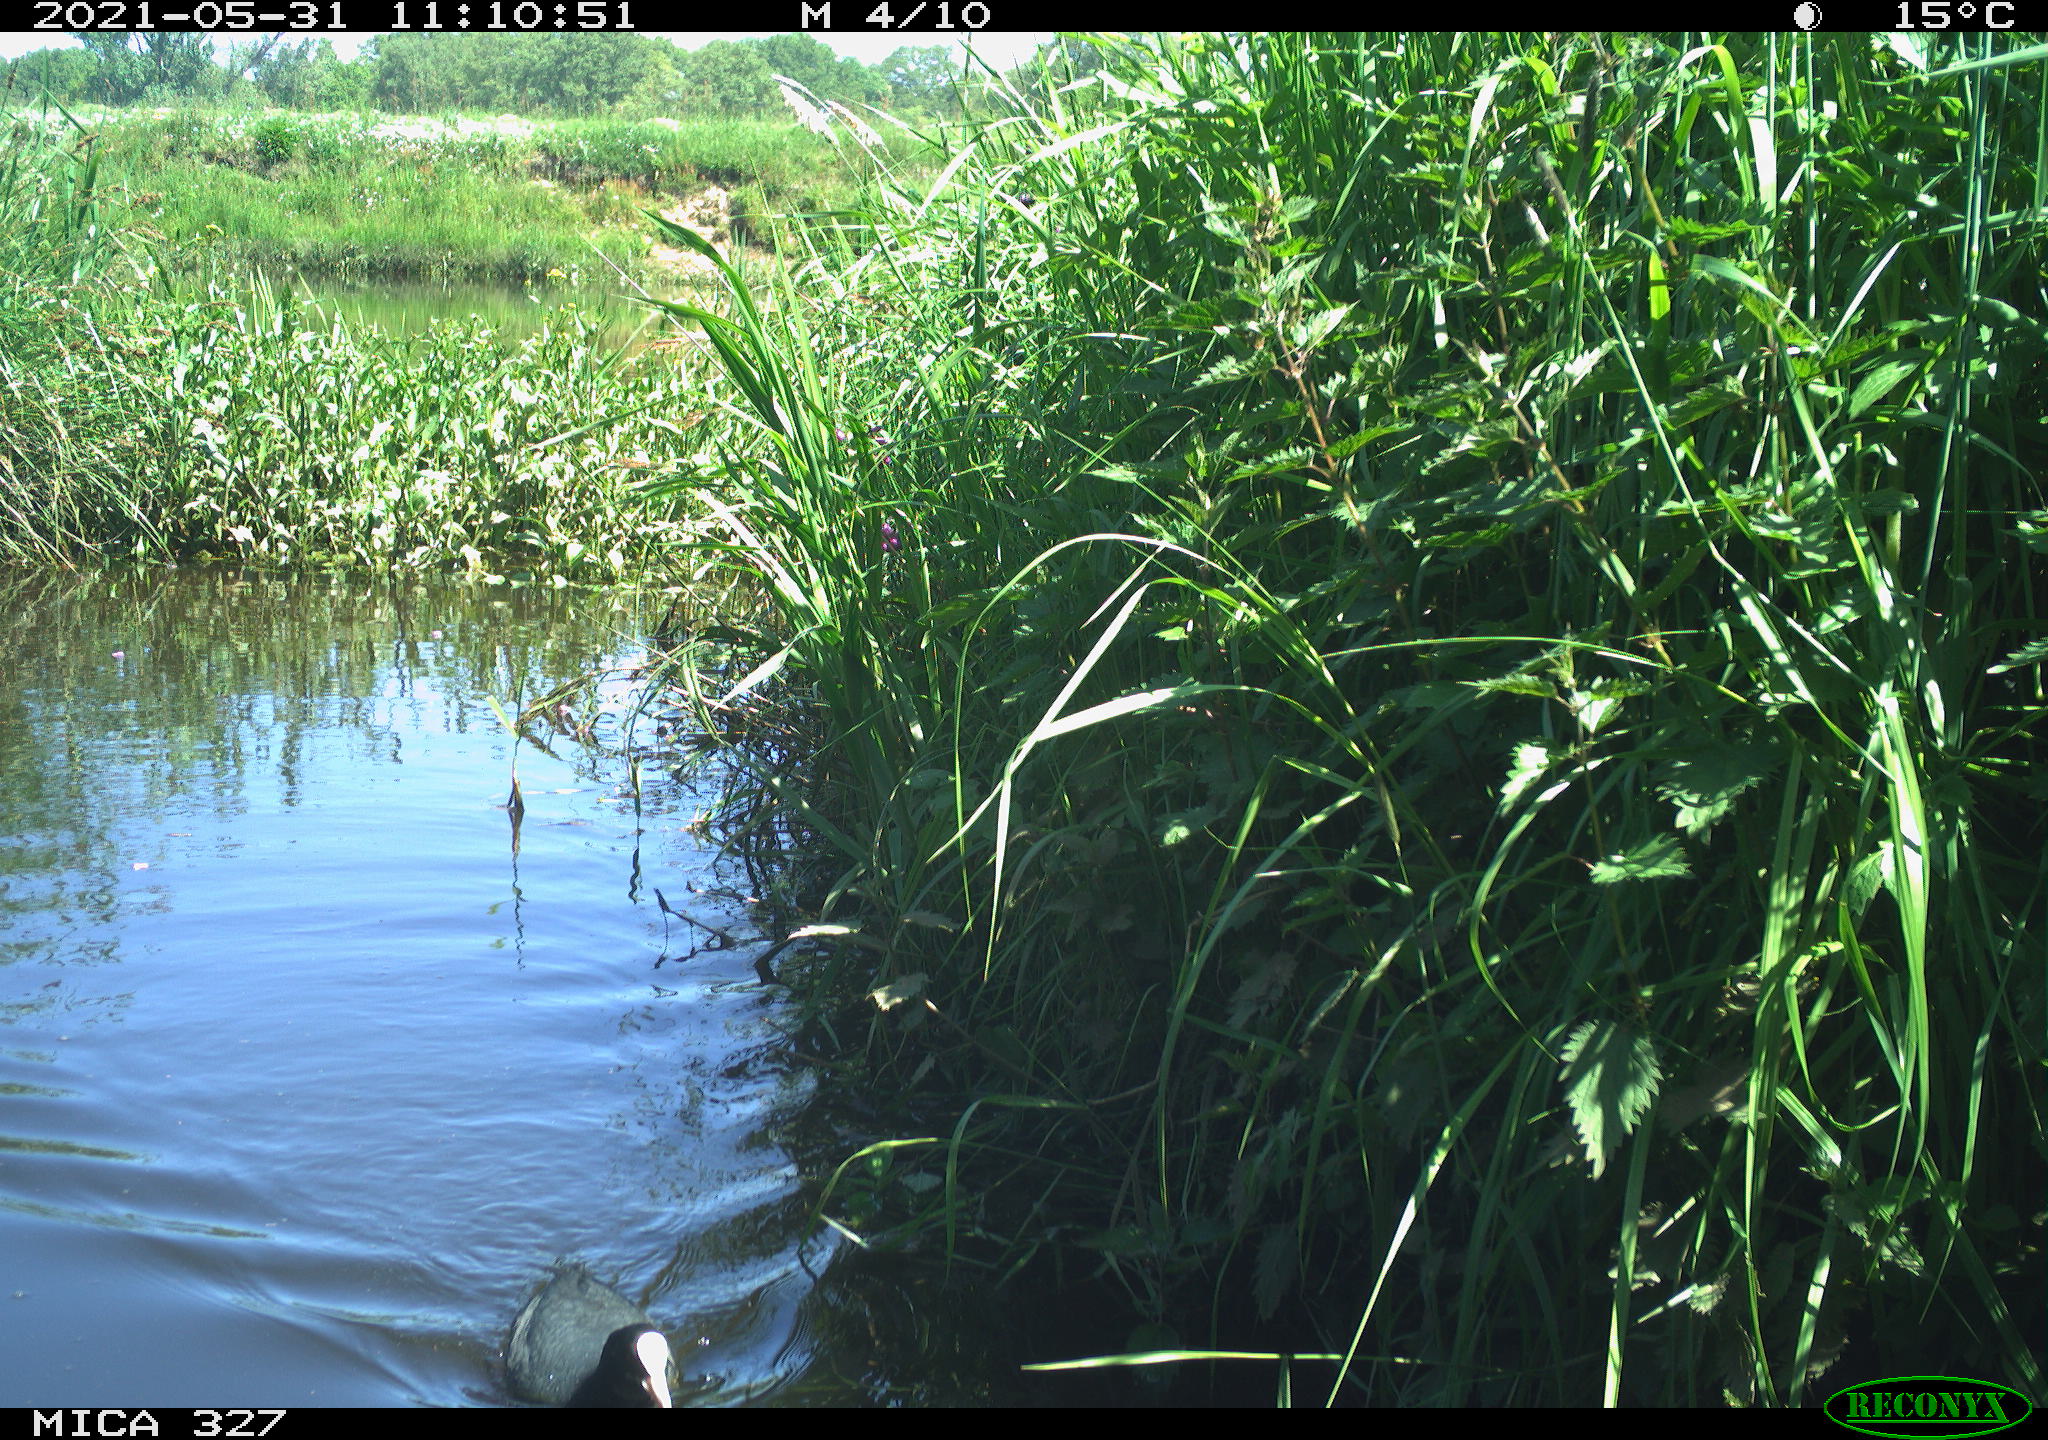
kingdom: Animalia
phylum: Chordata
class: Aves
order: Gruiformes
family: Rallidae
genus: Fulica
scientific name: Fulica atra
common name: Eurasian coot
